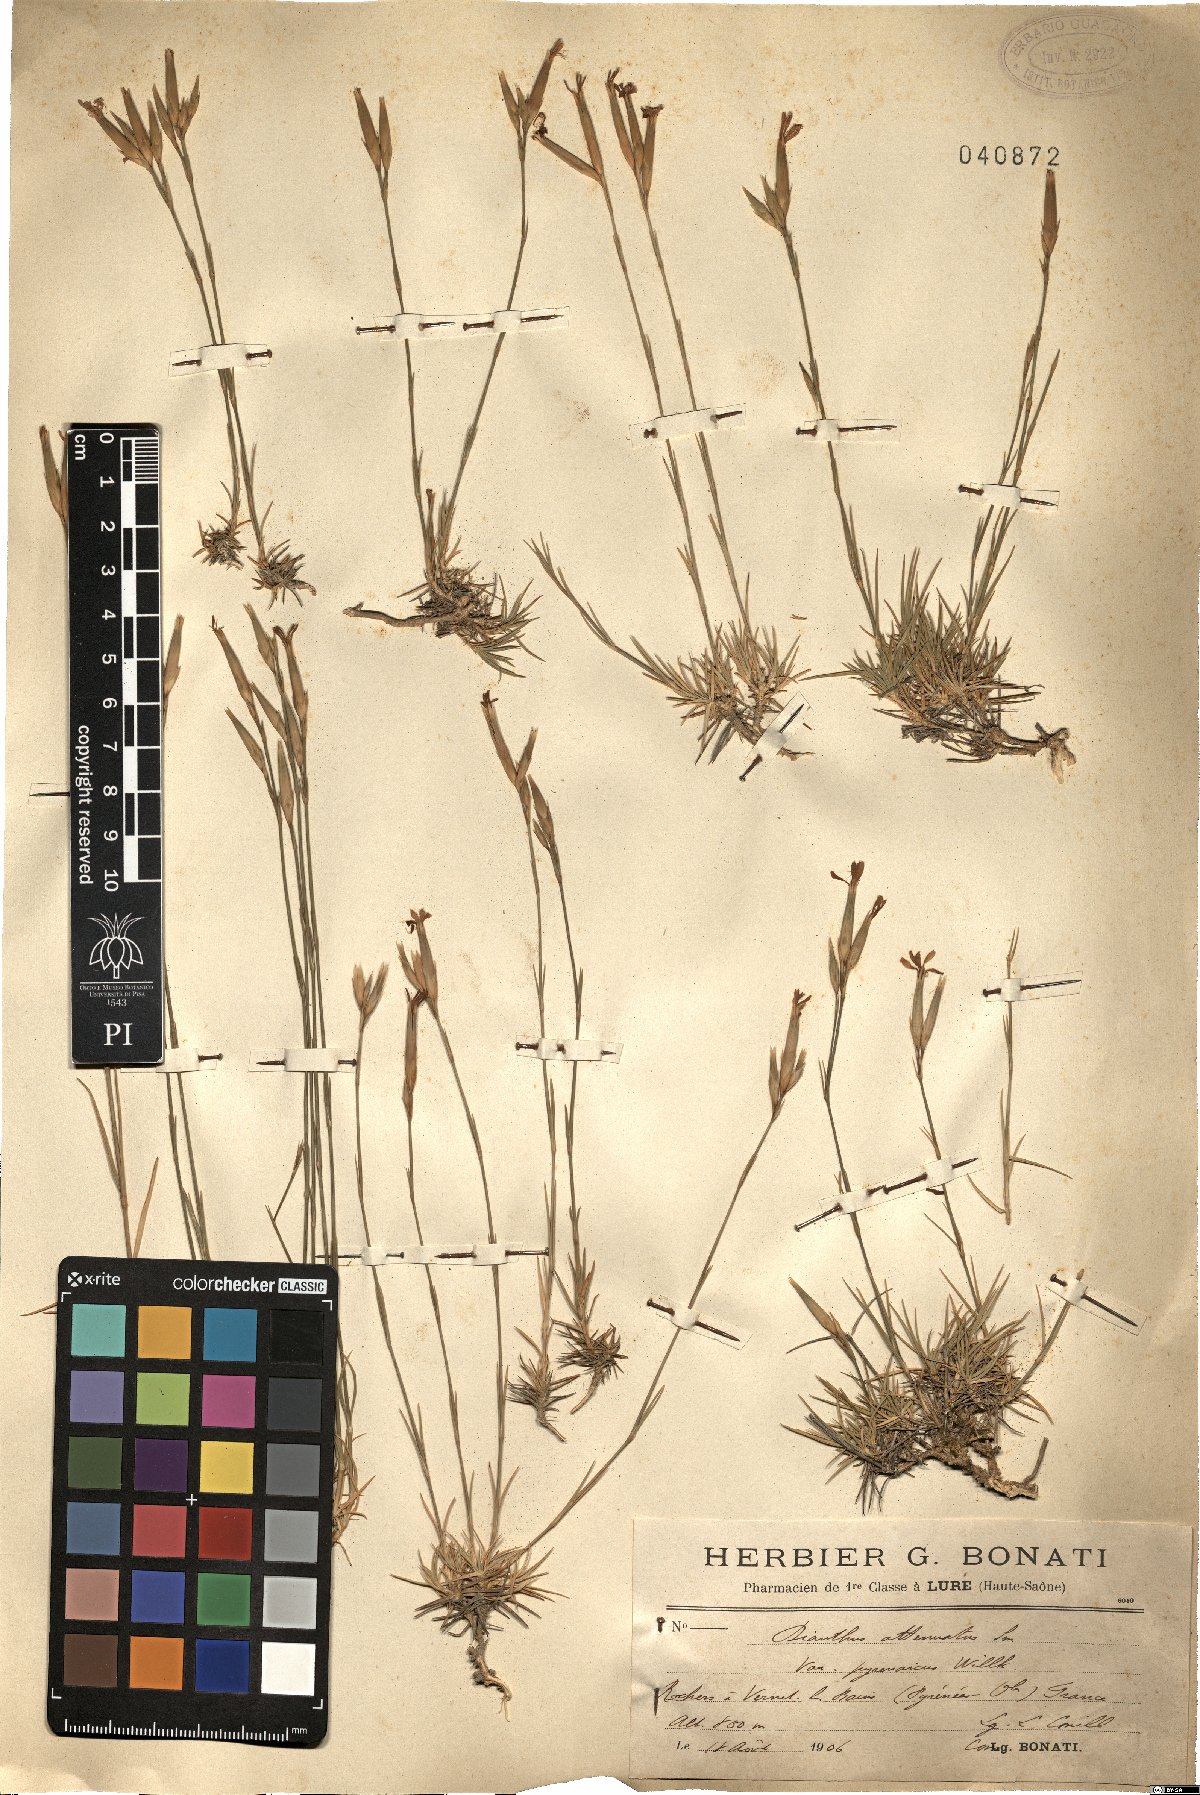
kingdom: Plantae
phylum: Tracheophyta
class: Magnoliopsida
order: Caryophyllales
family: Caryophyllaceae
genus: Dianthus
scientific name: Dianthus pyrenaicus
